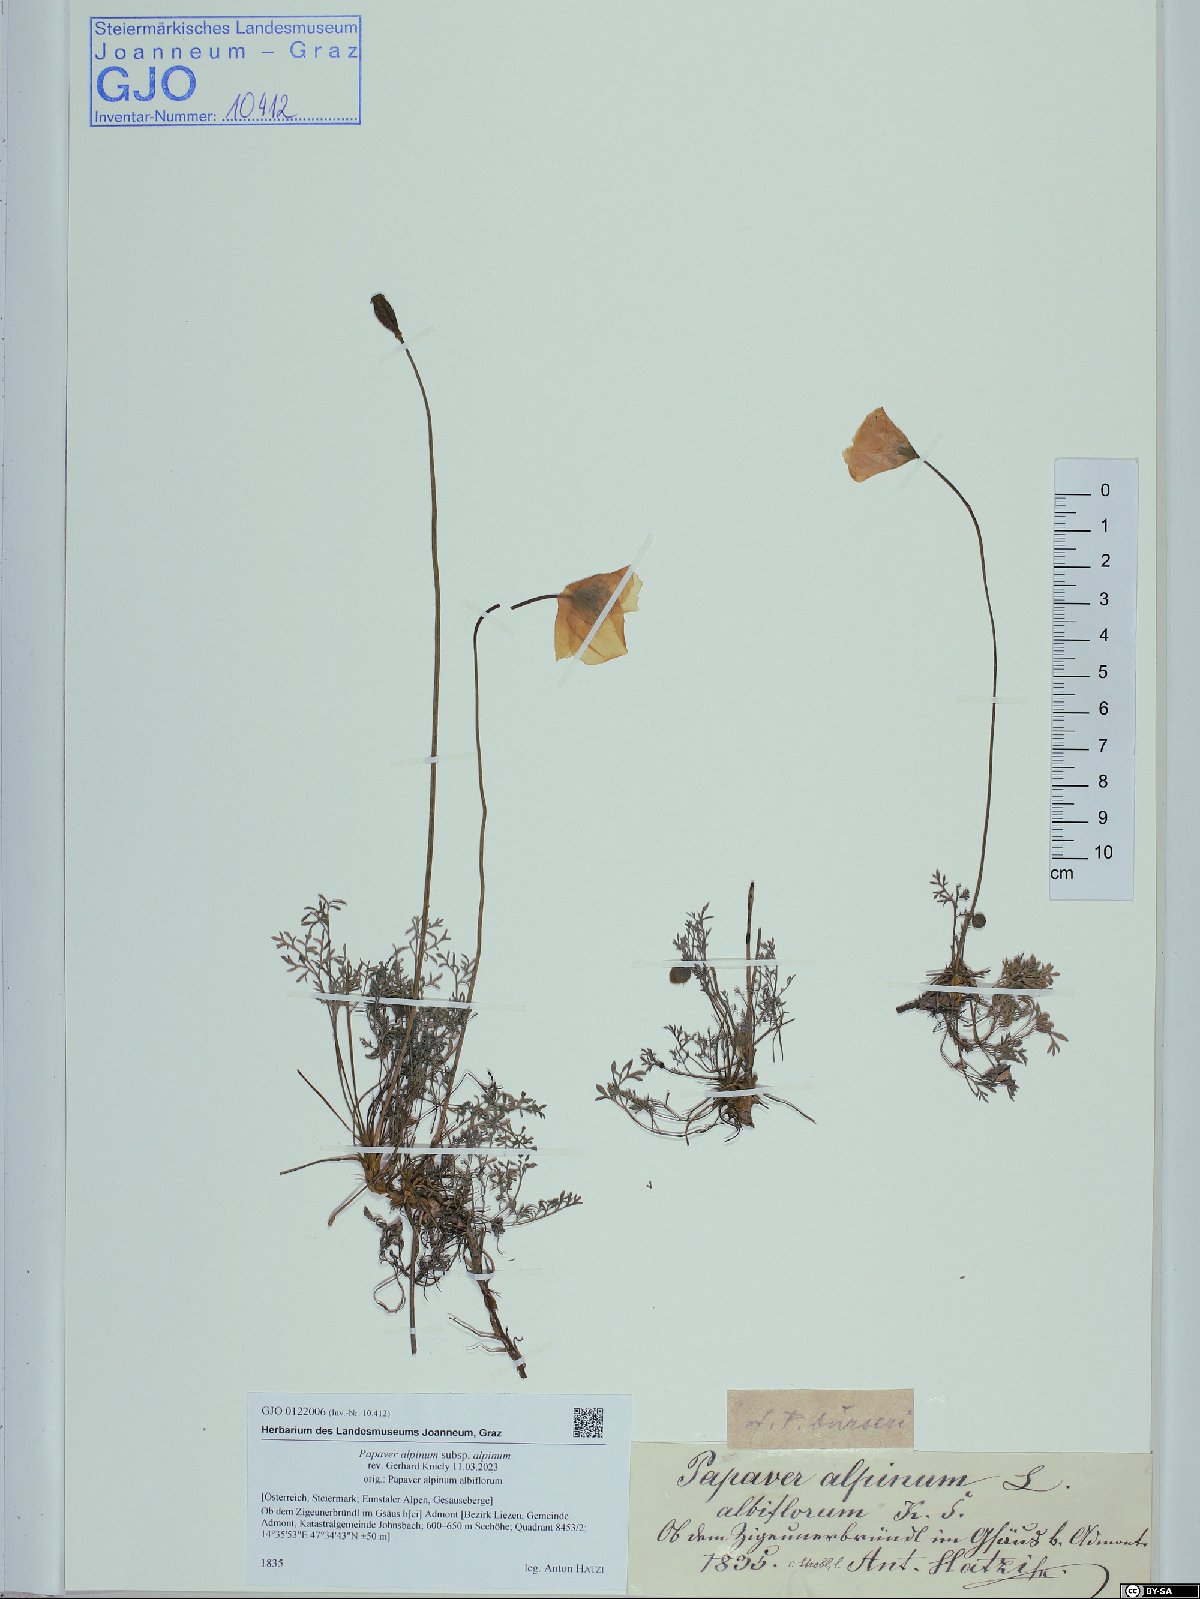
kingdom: Plantae
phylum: Tracheophyta
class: Magnoliopsida
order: Ranunculales
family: Papaveraceae
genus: Papaver
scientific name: Papaver alpinum
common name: Austrian poppy
